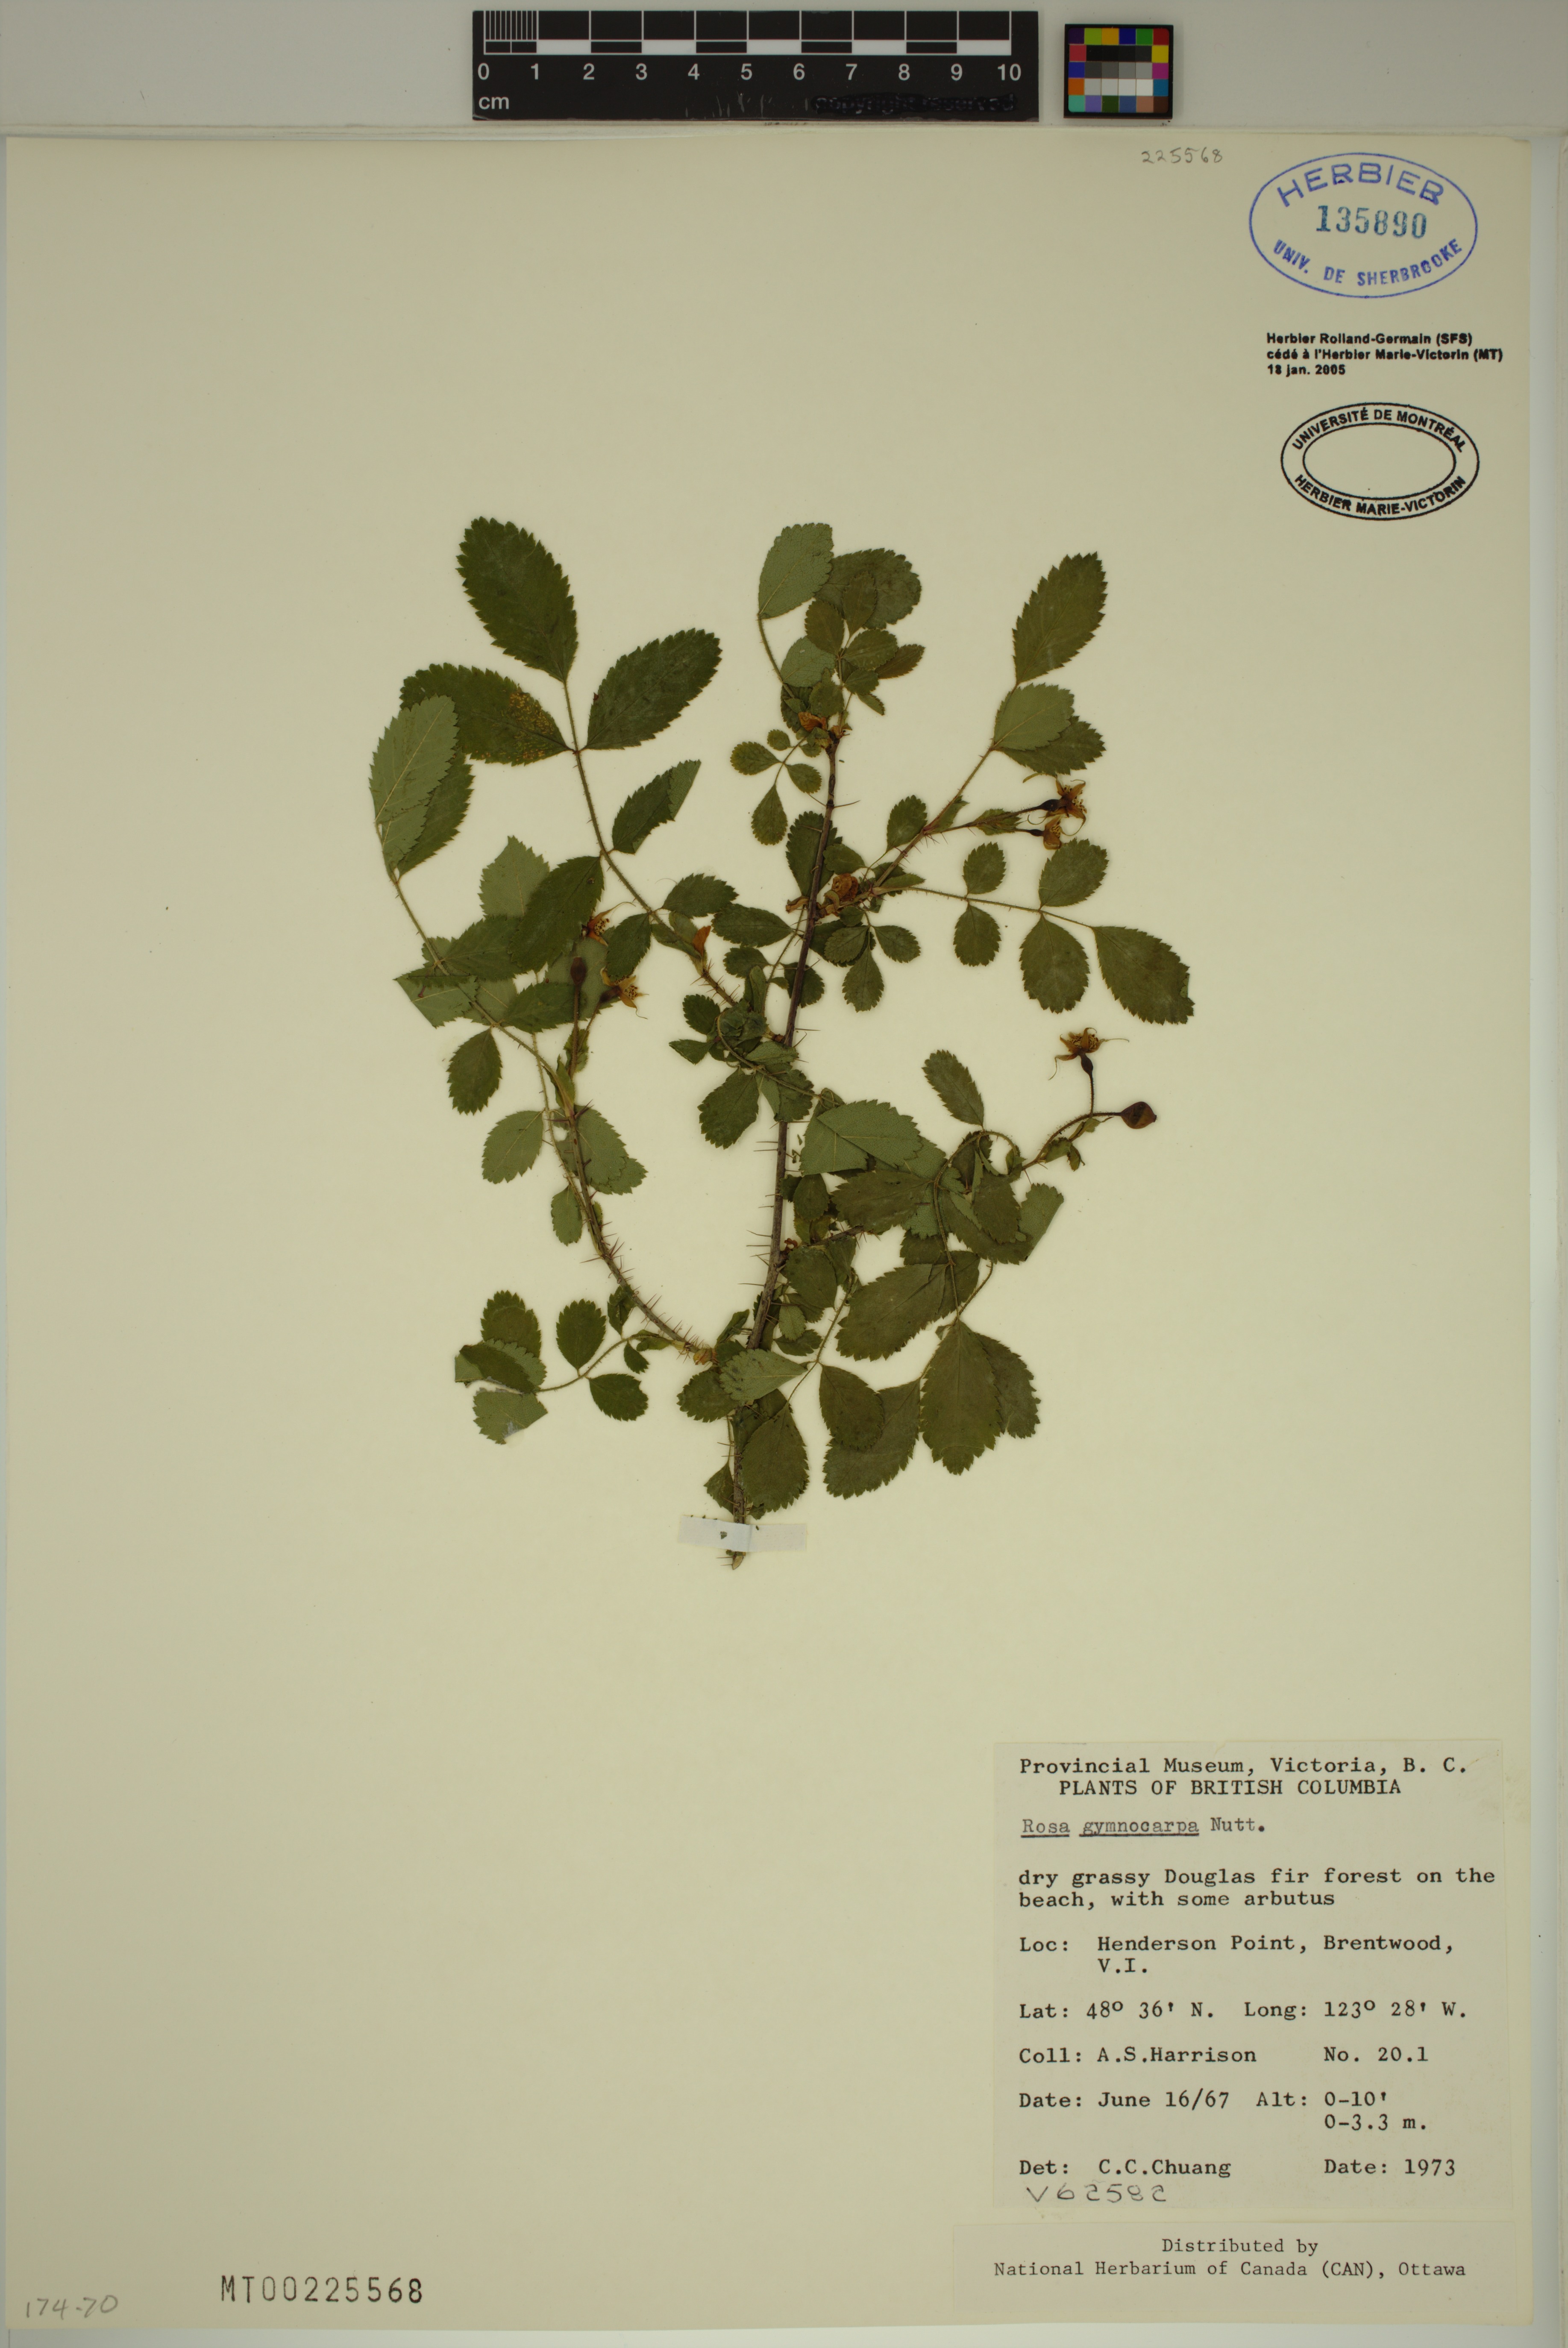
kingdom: Plantae
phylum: Tracheophyta
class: Magnoliopsida
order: Rosales
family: Rosaceae
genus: Rosa
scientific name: Rosa gymnocarpa
